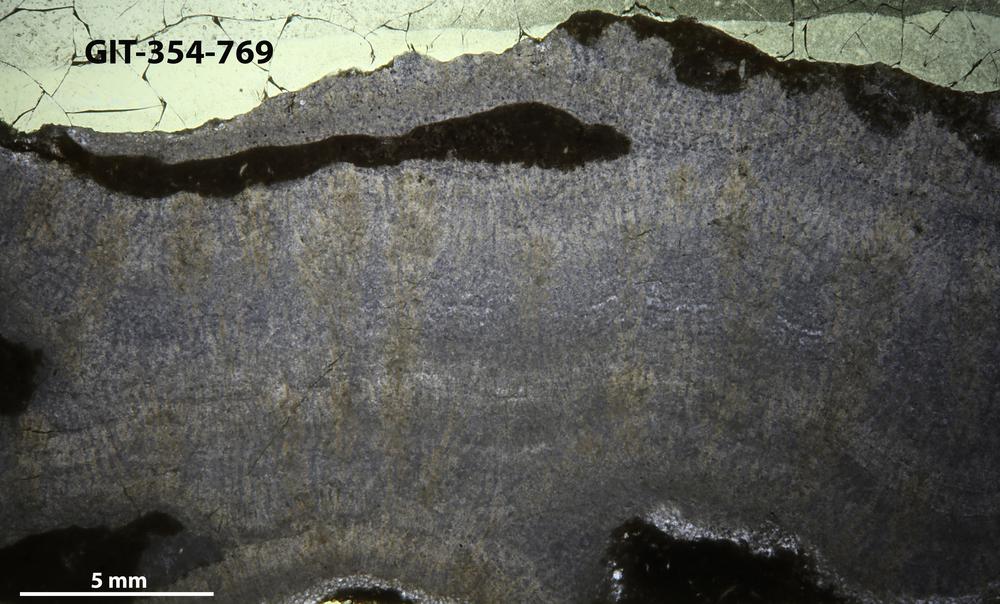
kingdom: Animalia
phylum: Porifera
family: Pseudolabechiidae
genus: Pseudolabechia
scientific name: Pseudolabechia
